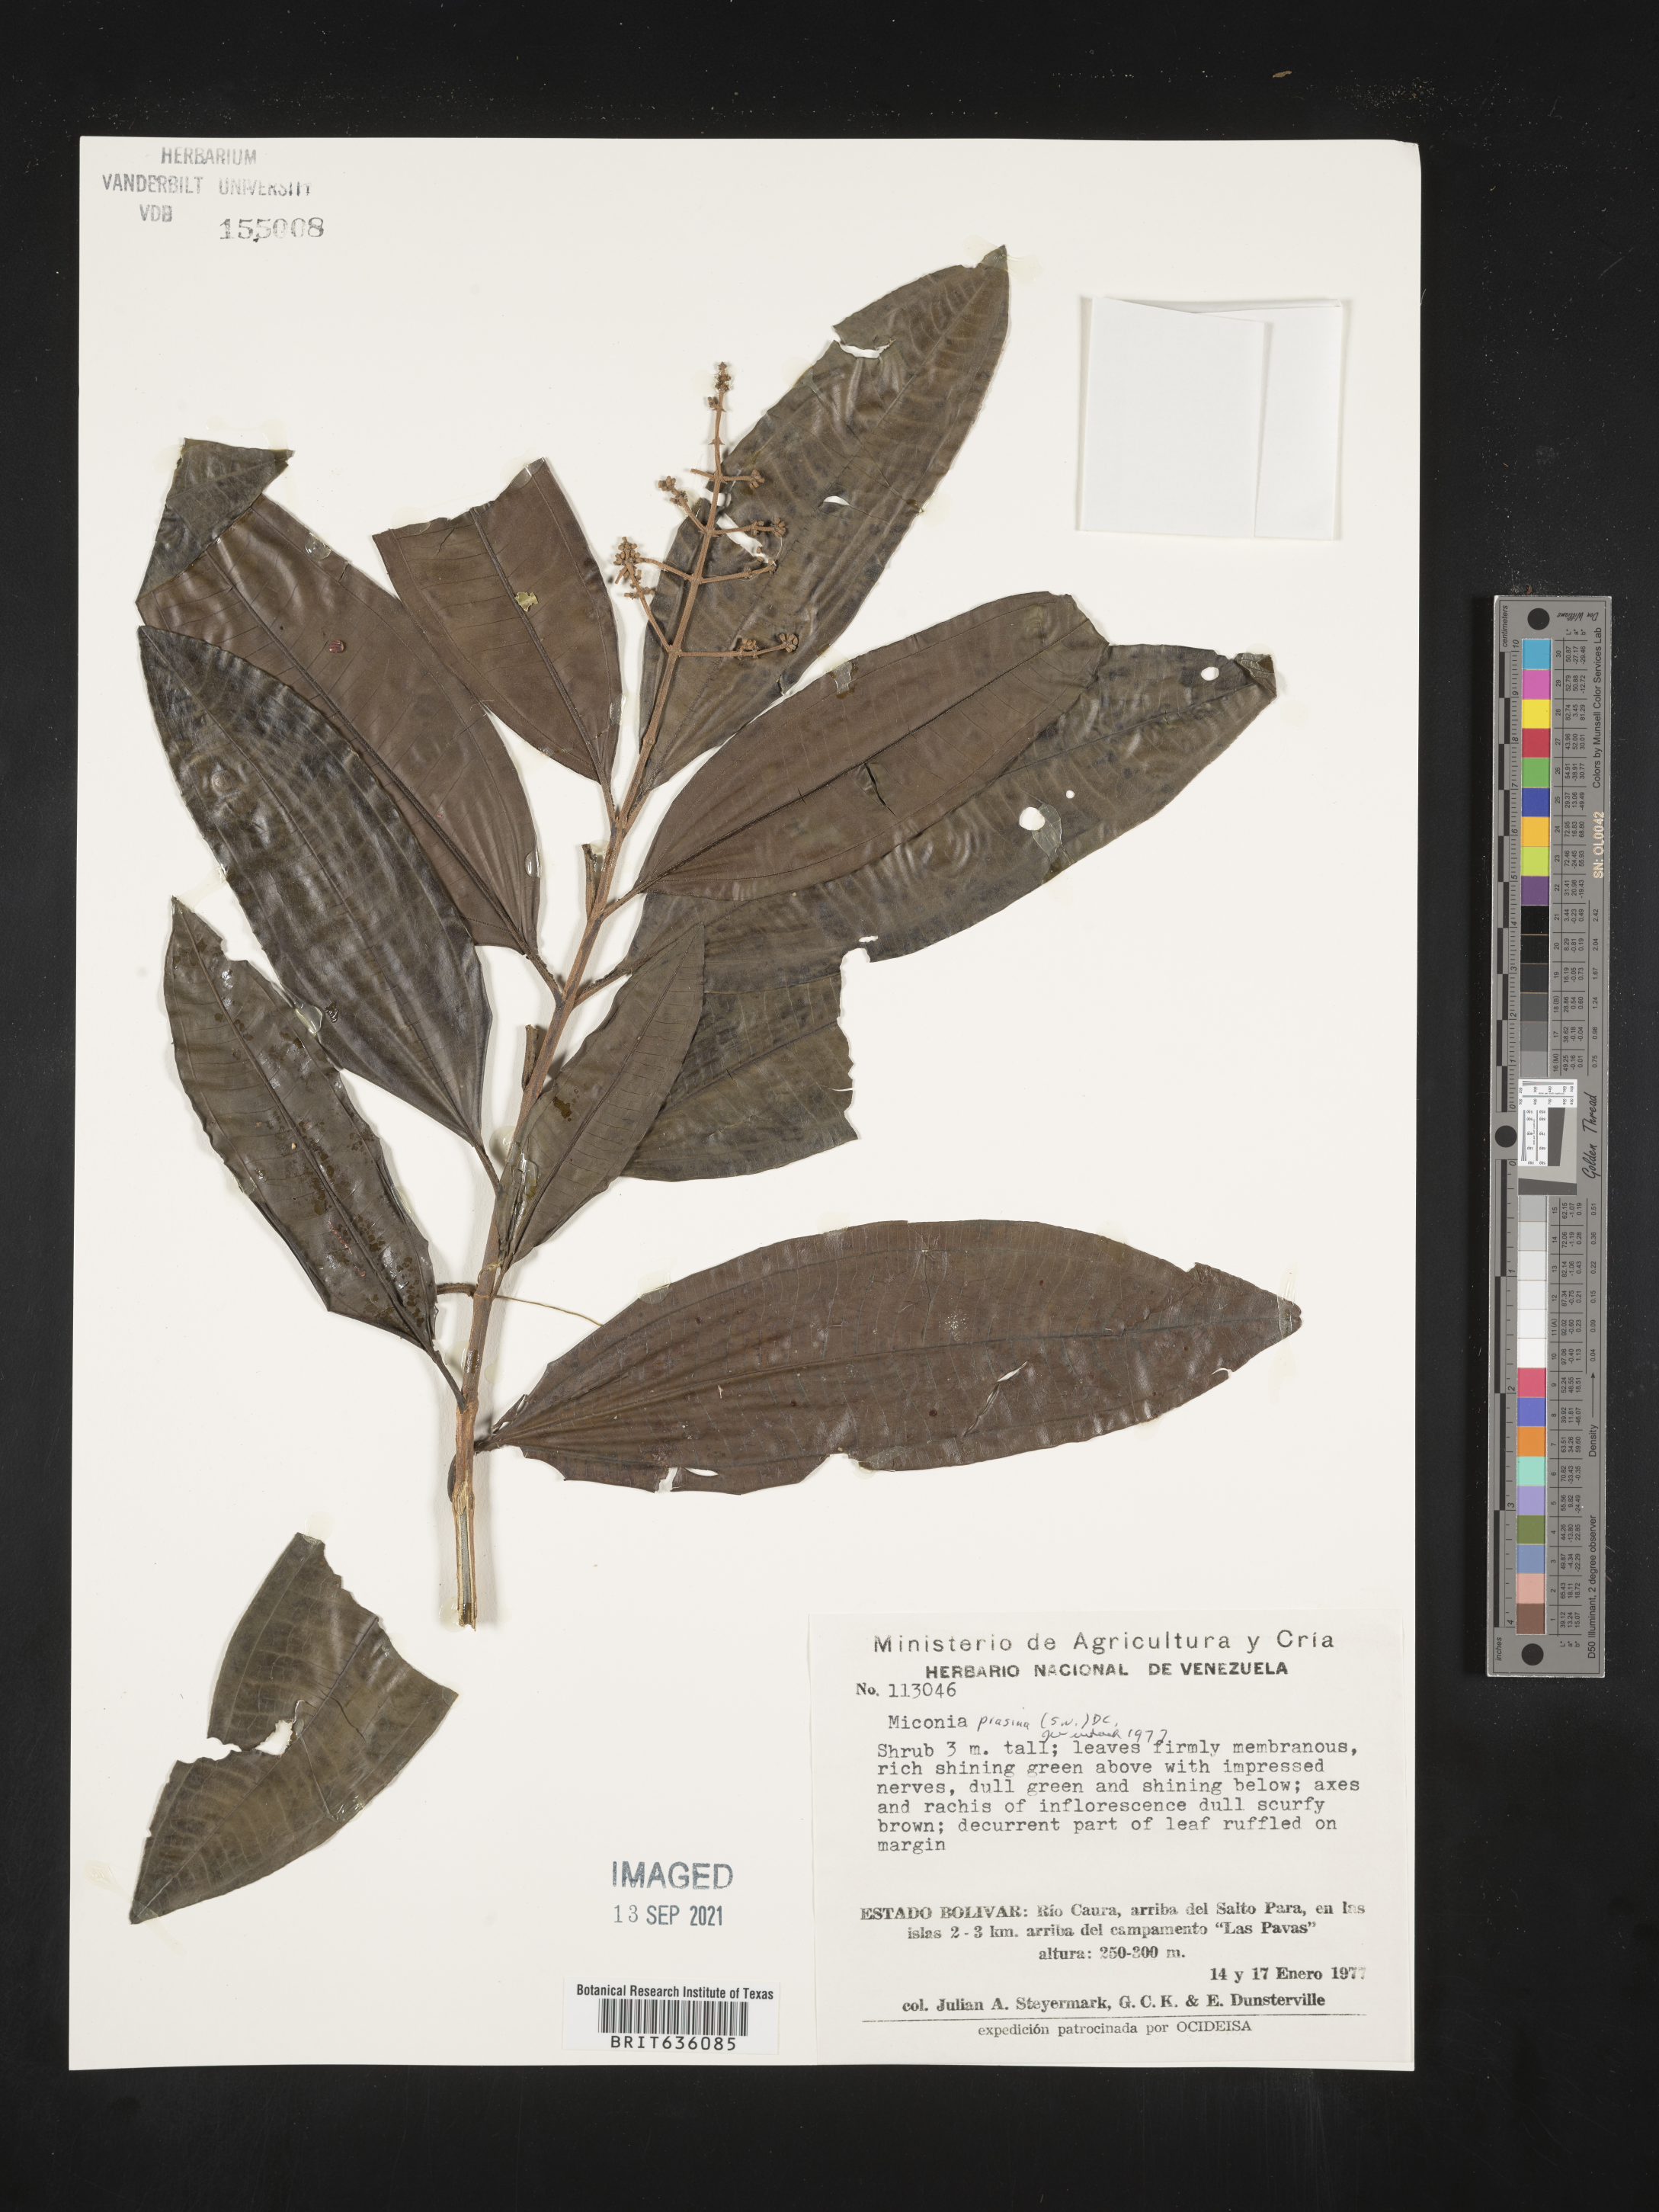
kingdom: Plantae
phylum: Tracheophyta
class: Magnoliopsida
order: Myrtales
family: Melastomataceae
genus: Miconia
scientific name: Miconia
